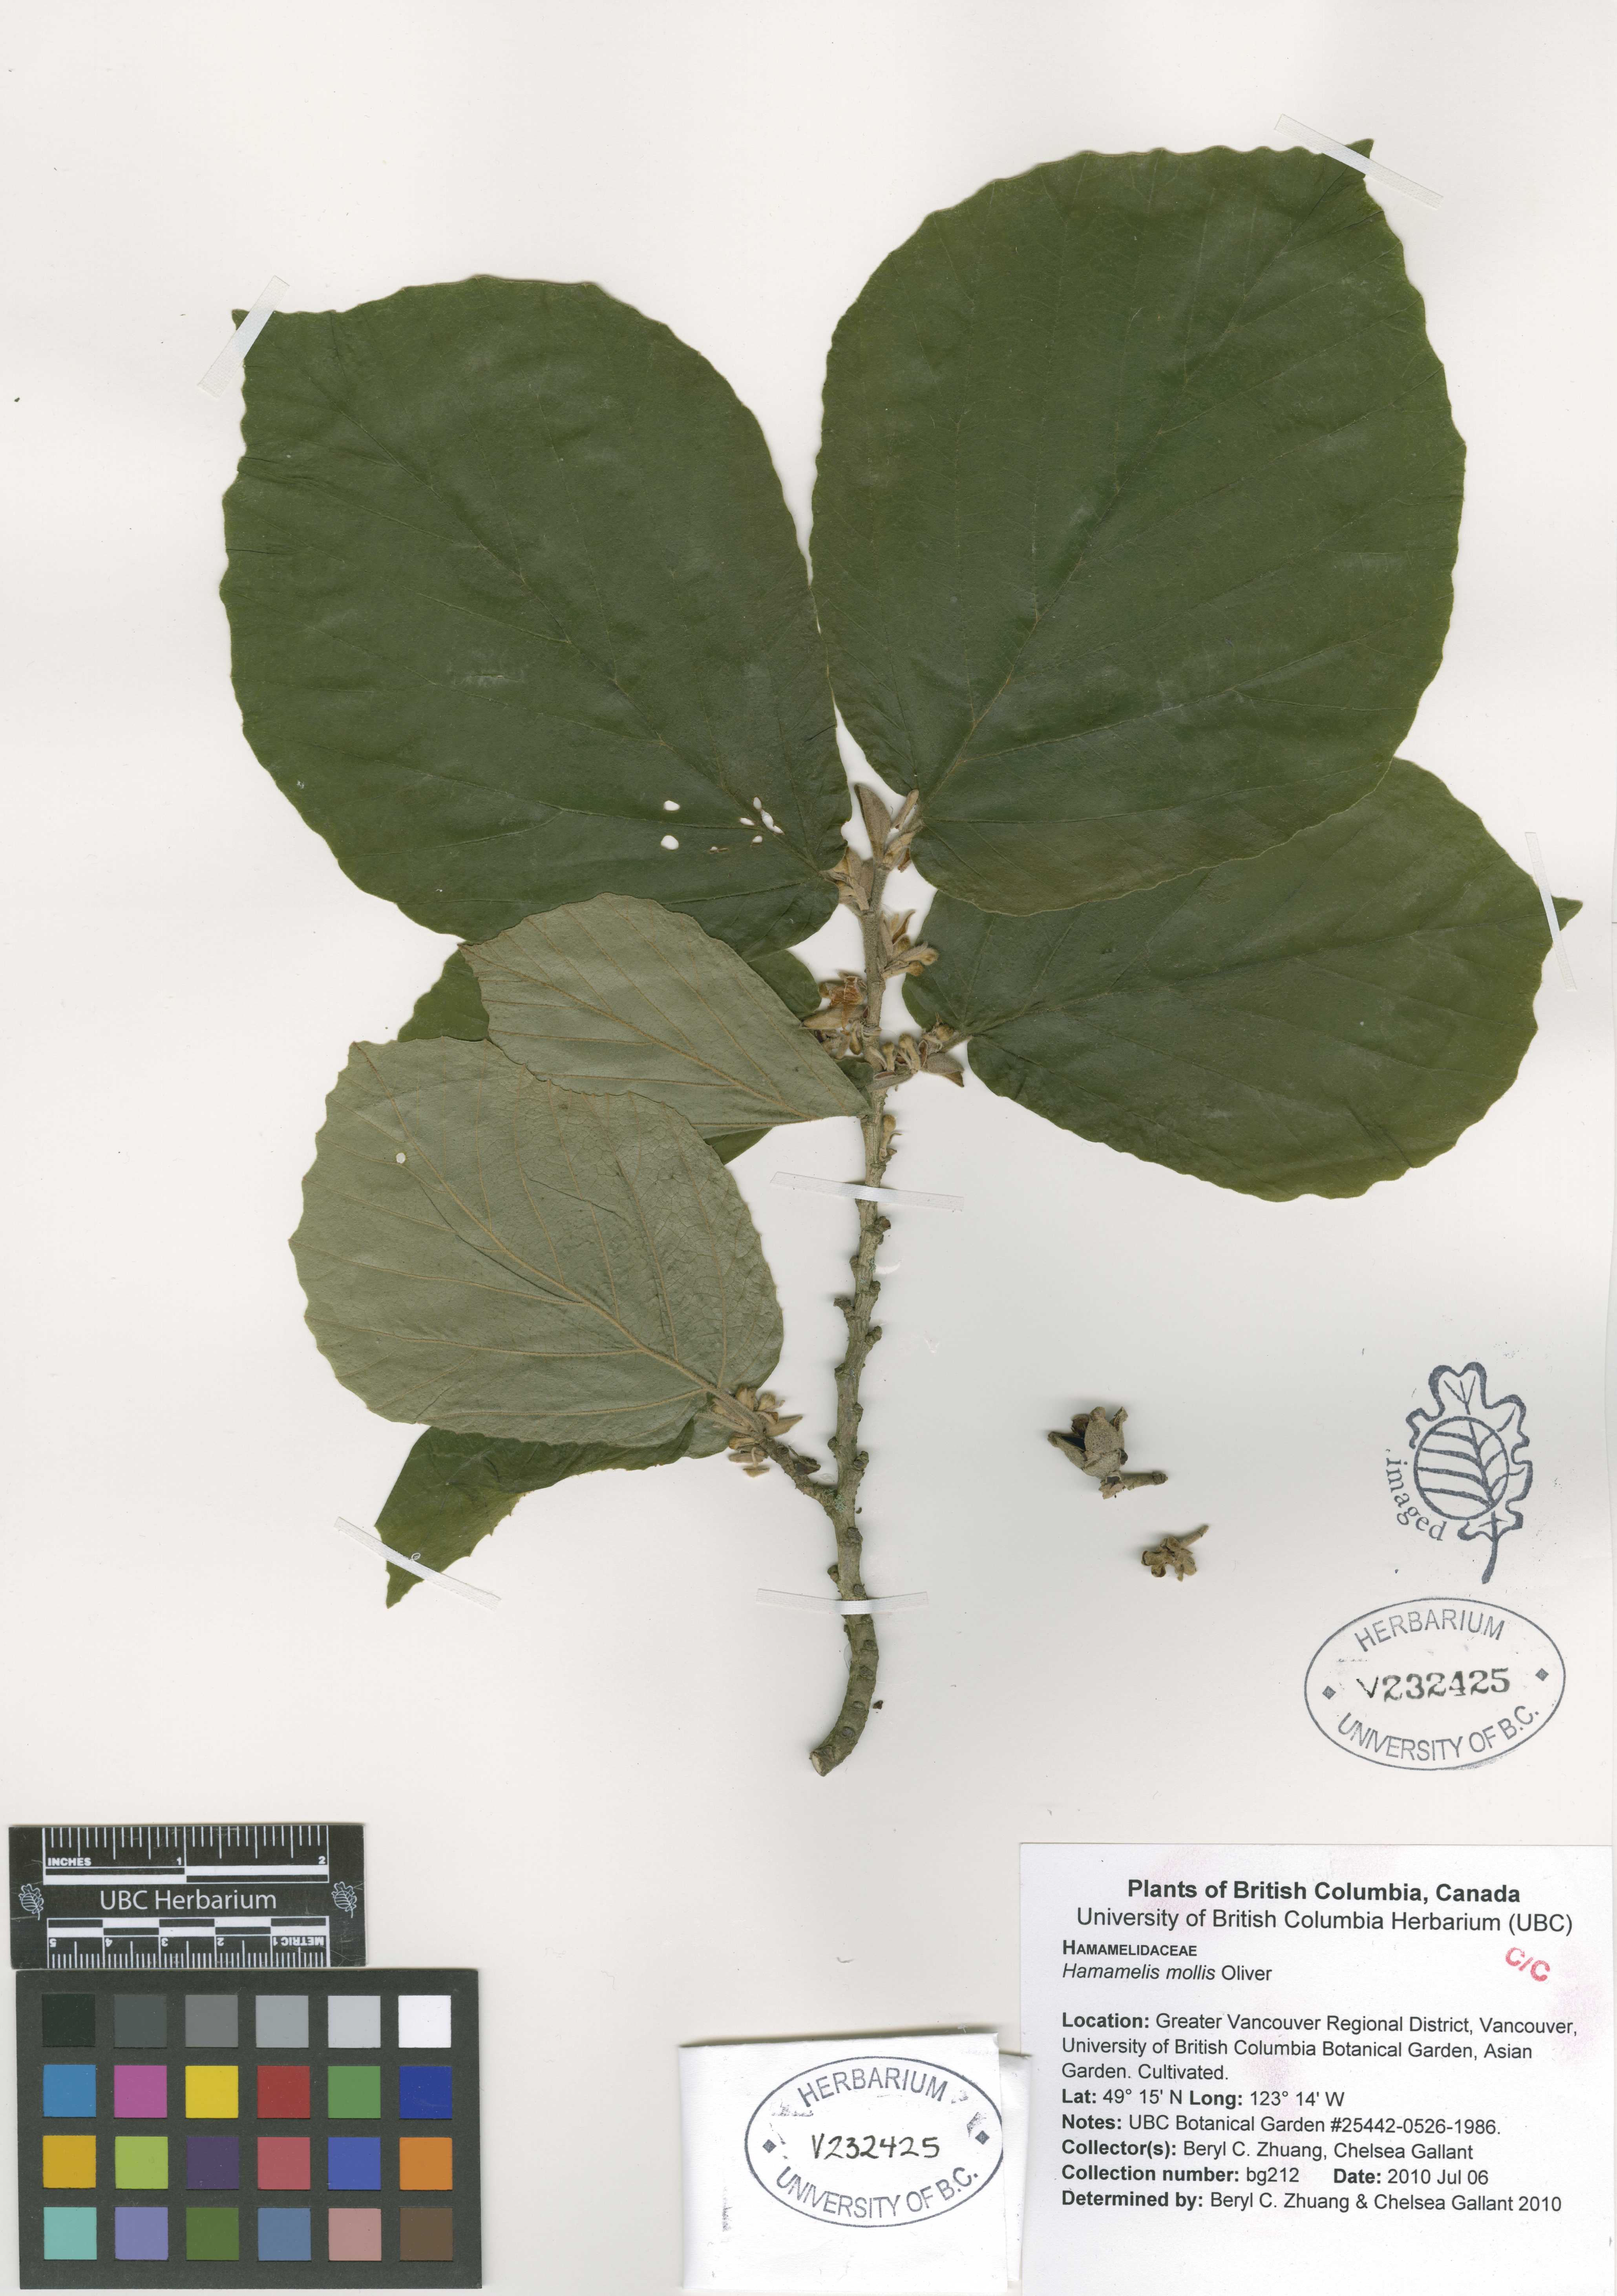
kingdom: Plantae
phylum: Tracheophyta
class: Magnoliopsida
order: Saxifragales
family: Hamamelidaceae
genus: Hamamelis
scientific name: Hamamelis mollis
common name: Chinese witch-hazel
